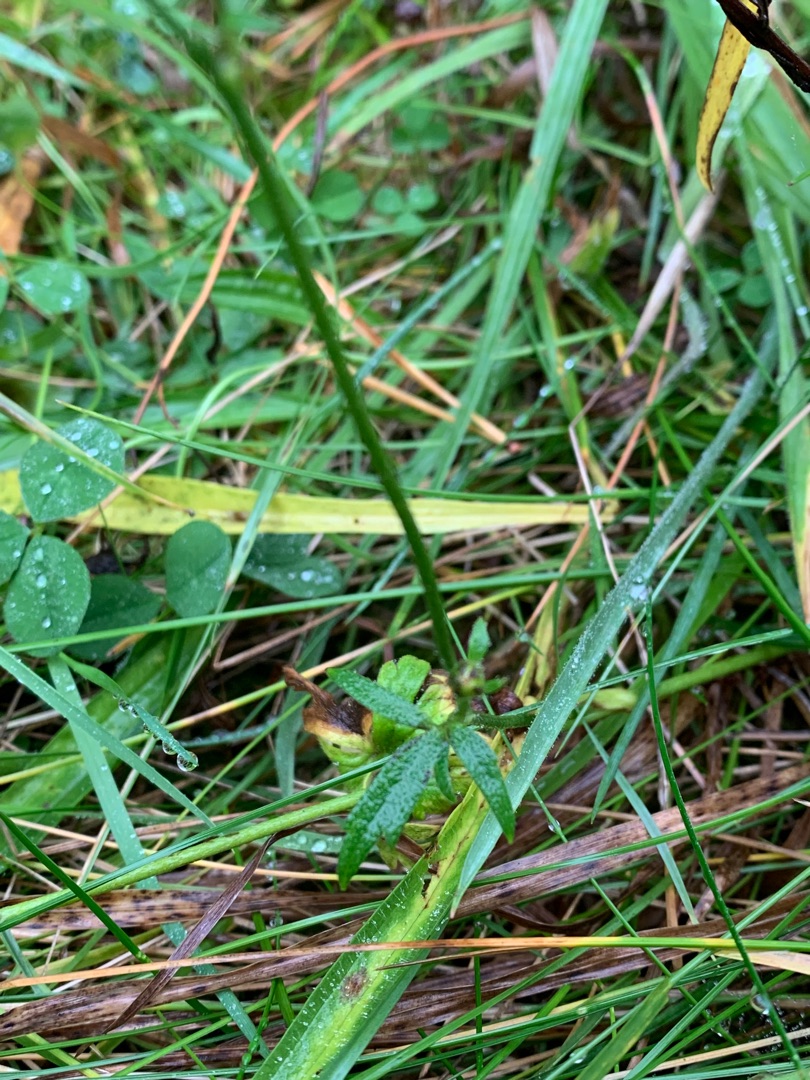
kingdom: Plantae
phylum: Tracheophyta
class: Magnoliopsida
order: Ranunculales
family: Ranunculaceae
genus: Ranunculus
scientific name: Ranunculus acris
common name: Bidende ranunkel
